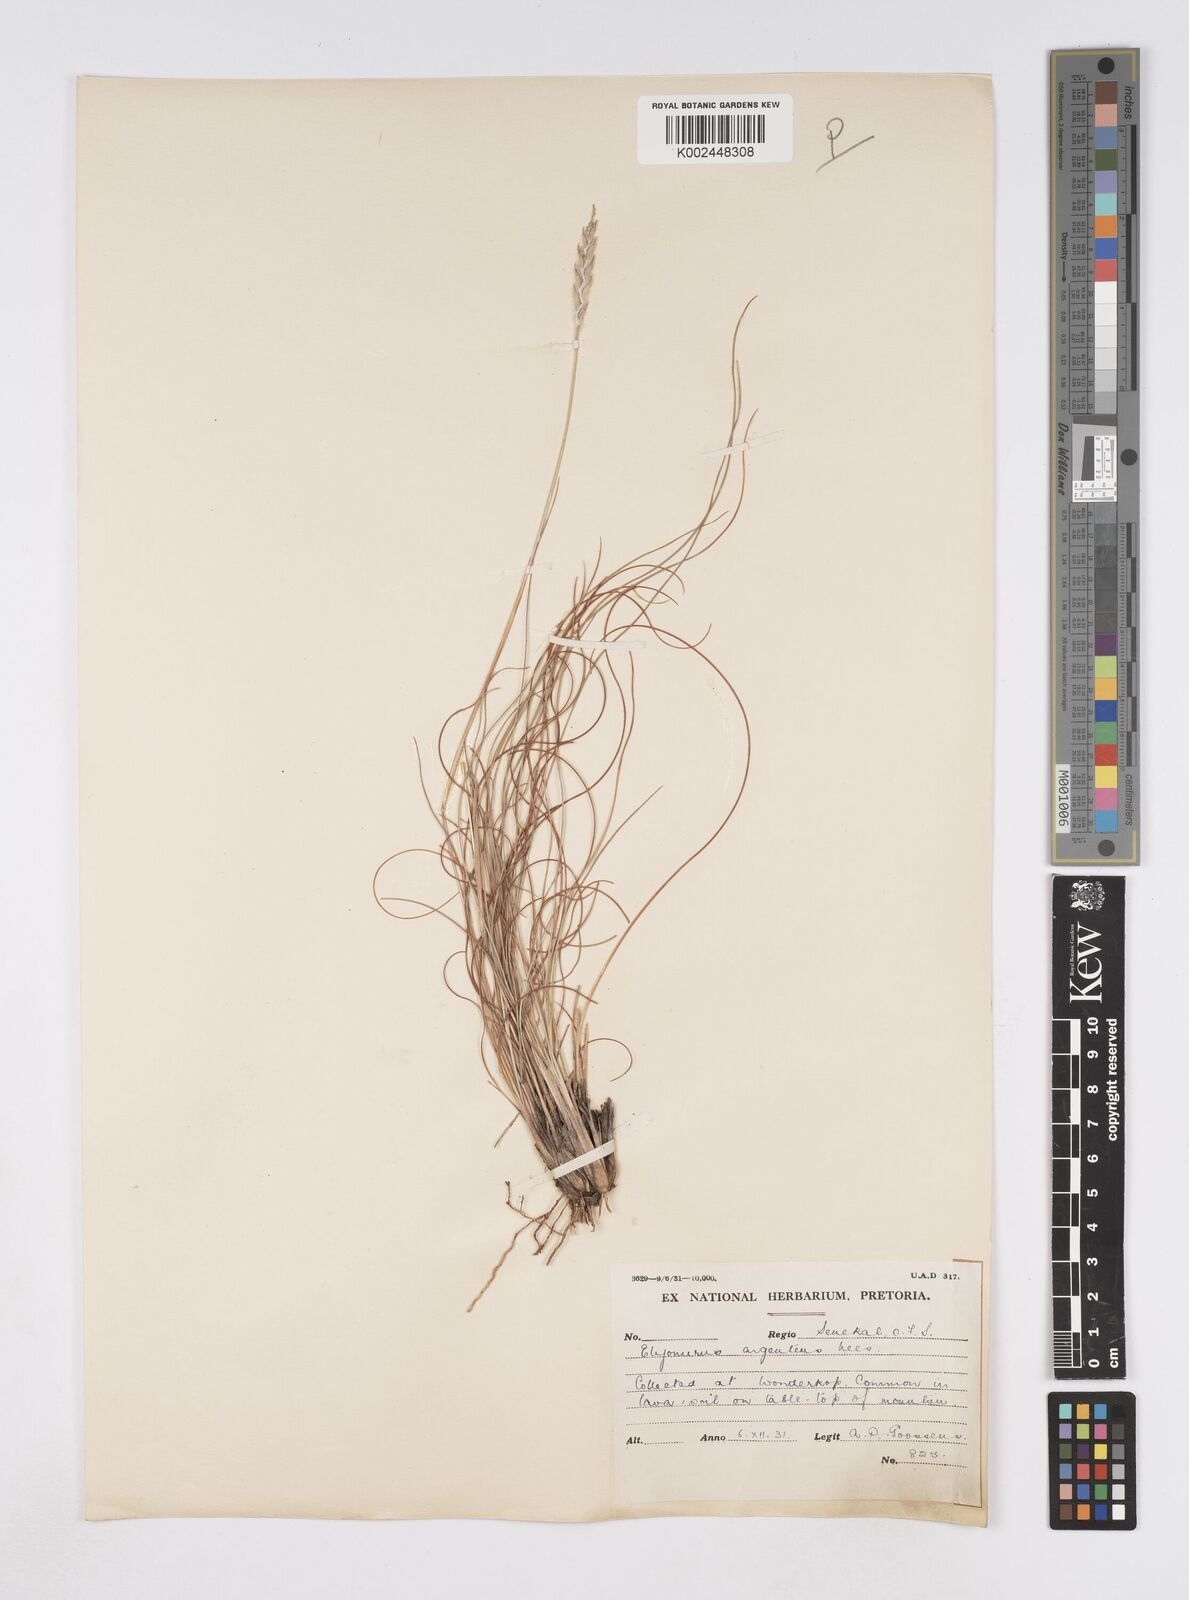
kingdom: Plantae
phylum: Tracheophyta
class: Liliopsida
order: Poales
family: Poaceae
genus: Elionurus
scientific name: Elionurus muticus
